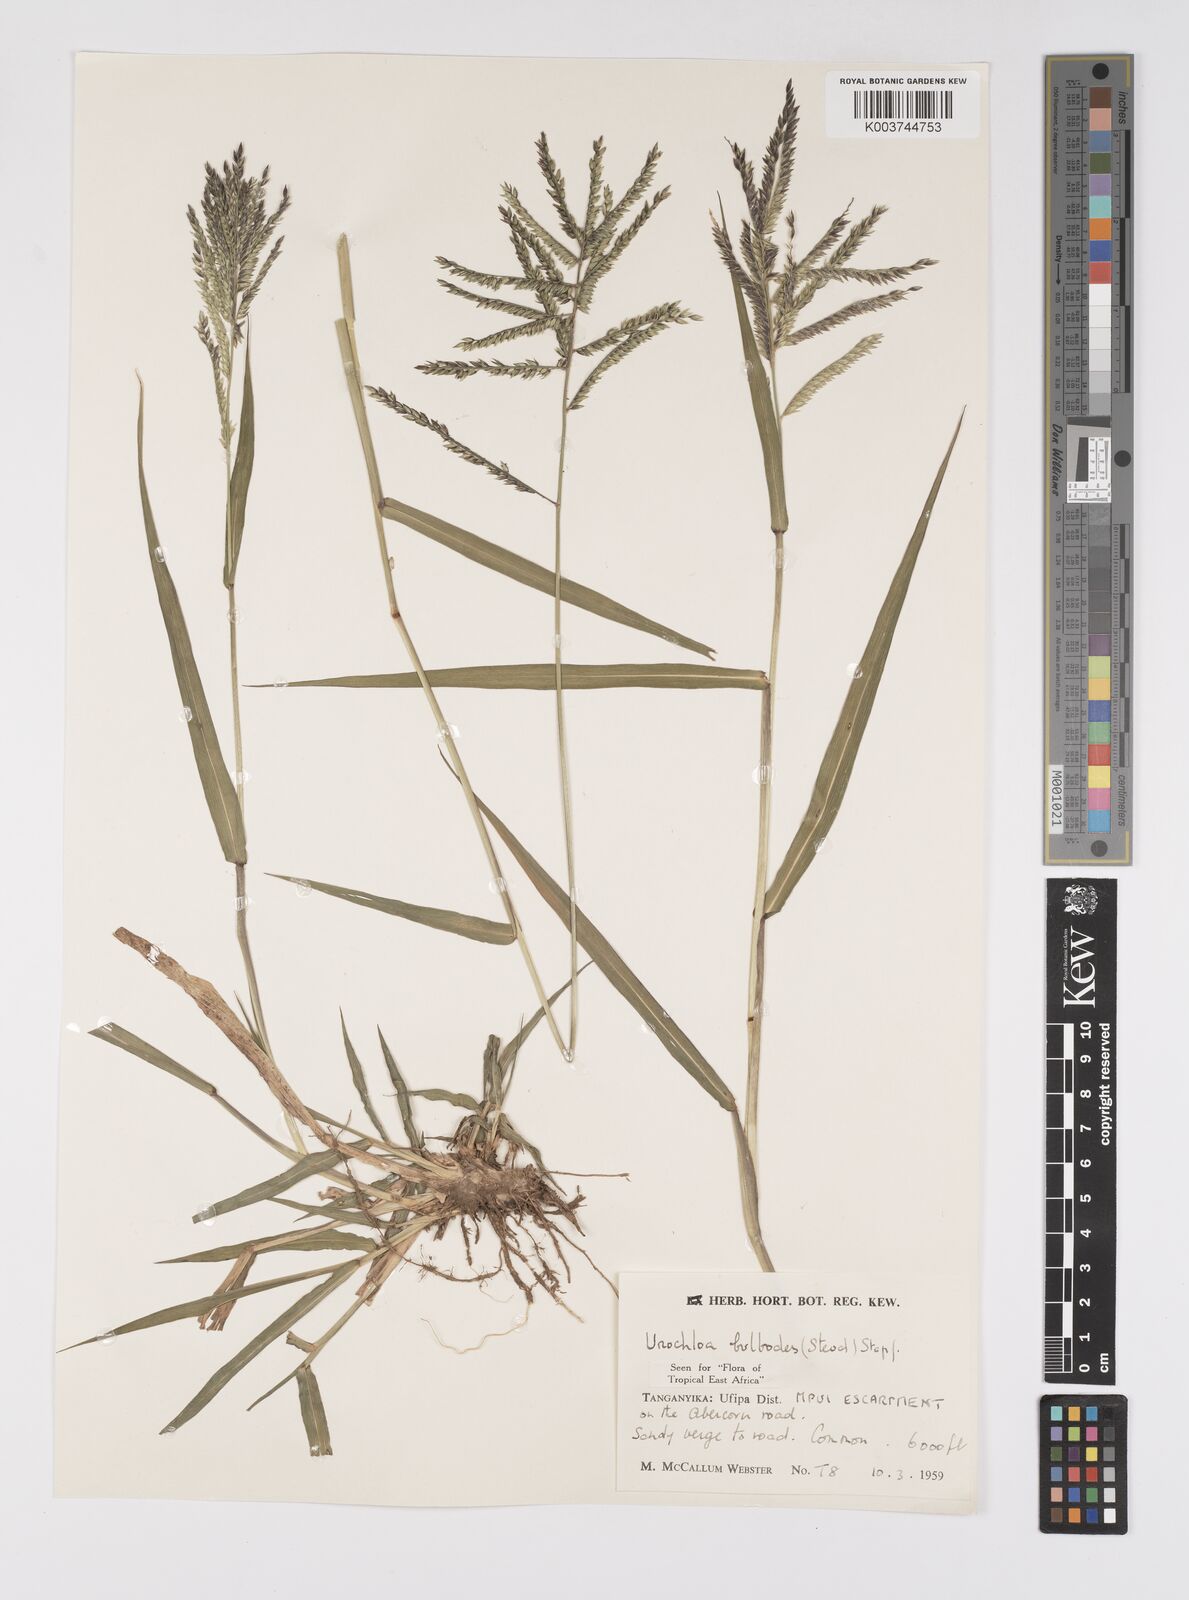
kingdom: Plantae
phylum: Tracheophyta
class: Liliopsida
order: Poales
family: Poaceae
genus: Urochloa
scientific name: Urochloa oligotricha
